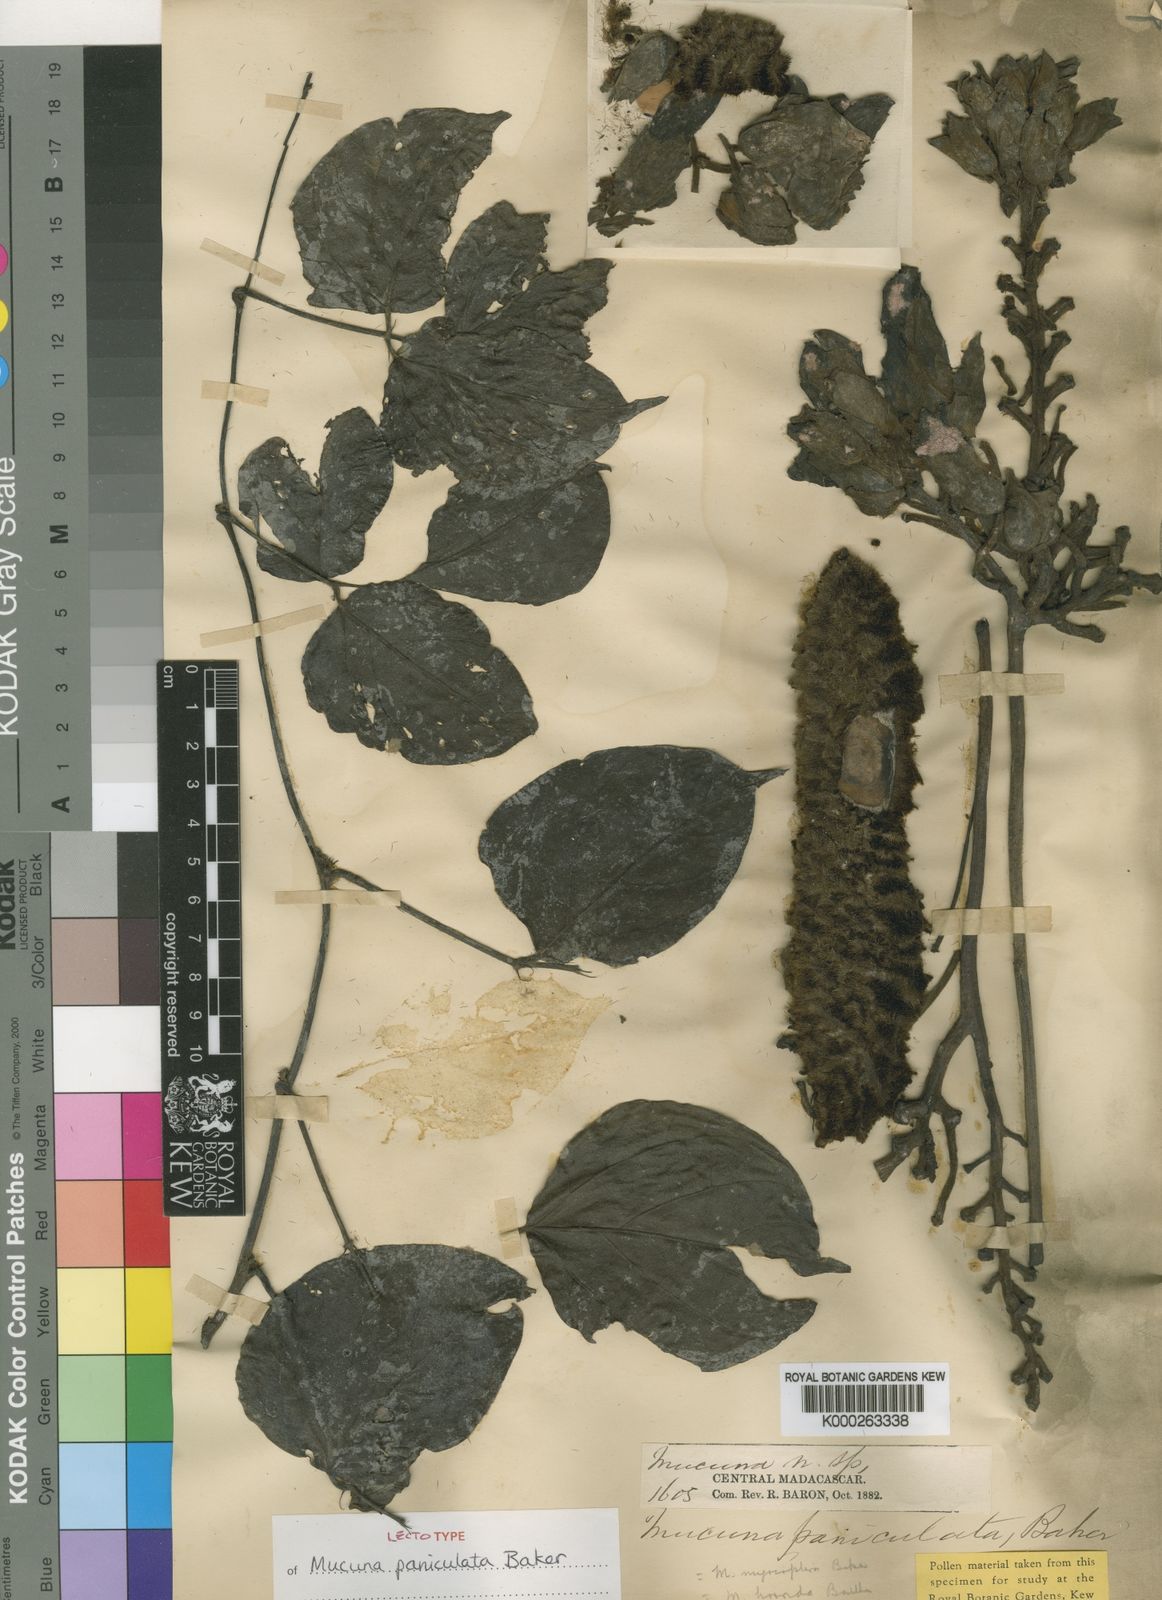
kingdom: Plantae
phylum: Tracheophyta
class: Magnoliopsida
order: Fabales
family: Fabaceae
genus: Mucuna
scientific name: Mucuna paniculata
